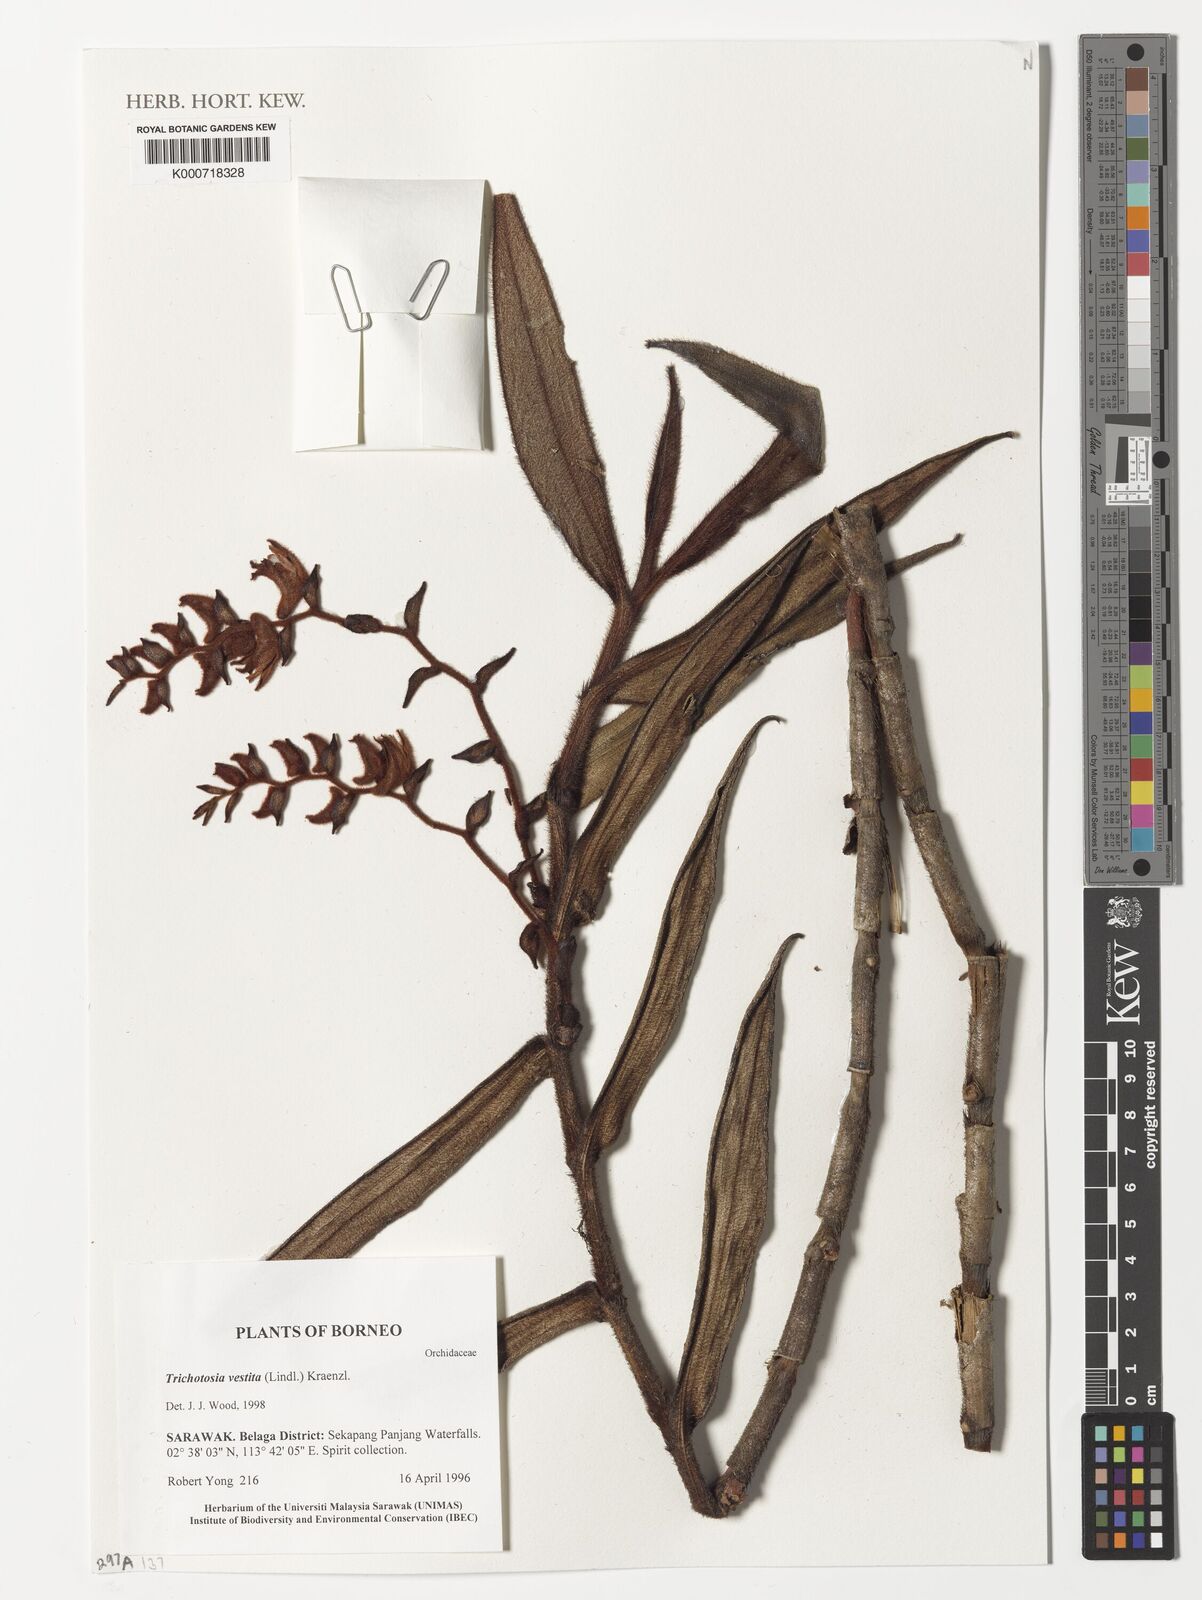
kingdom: Plantae
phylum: Tracheophyta
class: Liliopsida
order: Asparagales
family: Orchidaceae
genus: Trichotosia
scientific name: Trichotosia vestita
